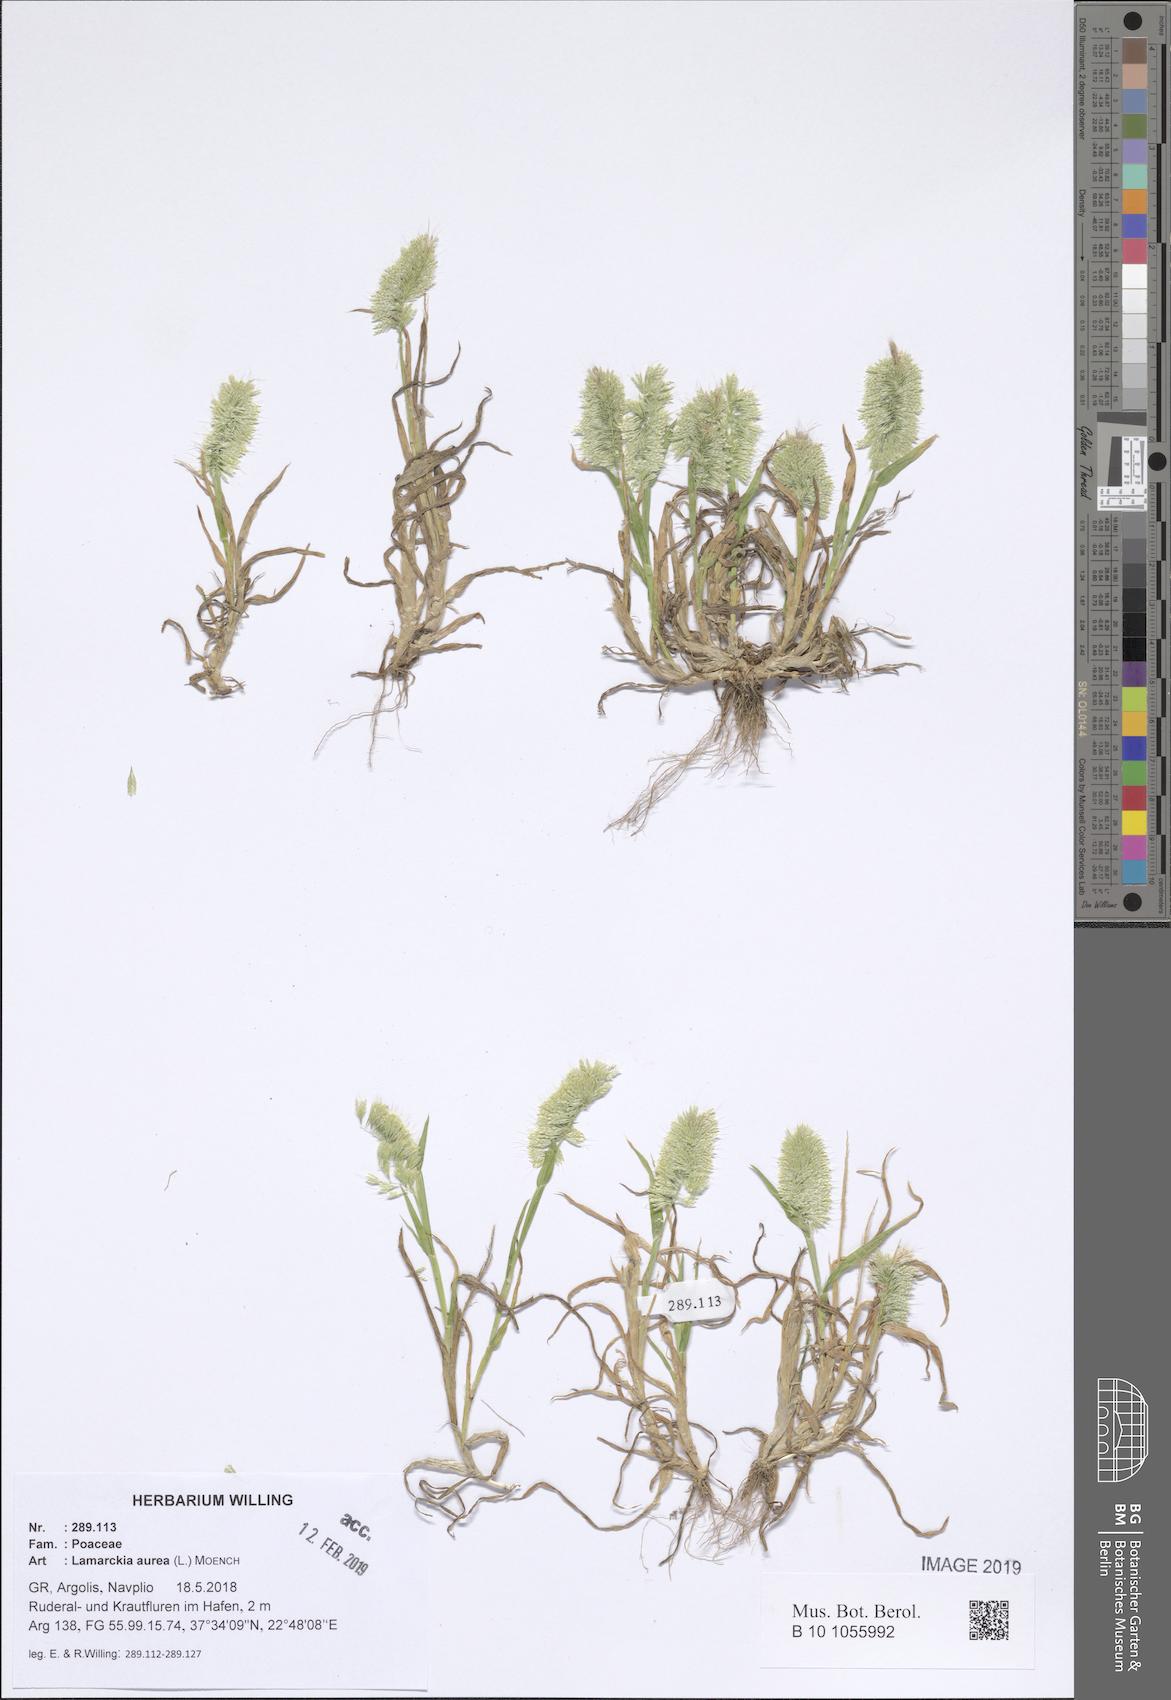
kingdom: Plantae
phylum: Tracheophyta
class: Liliopsida
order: Poales
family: Poaceae
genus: Lamarckia
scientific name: Lamarckia aurea
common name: Golden dog's-tail
